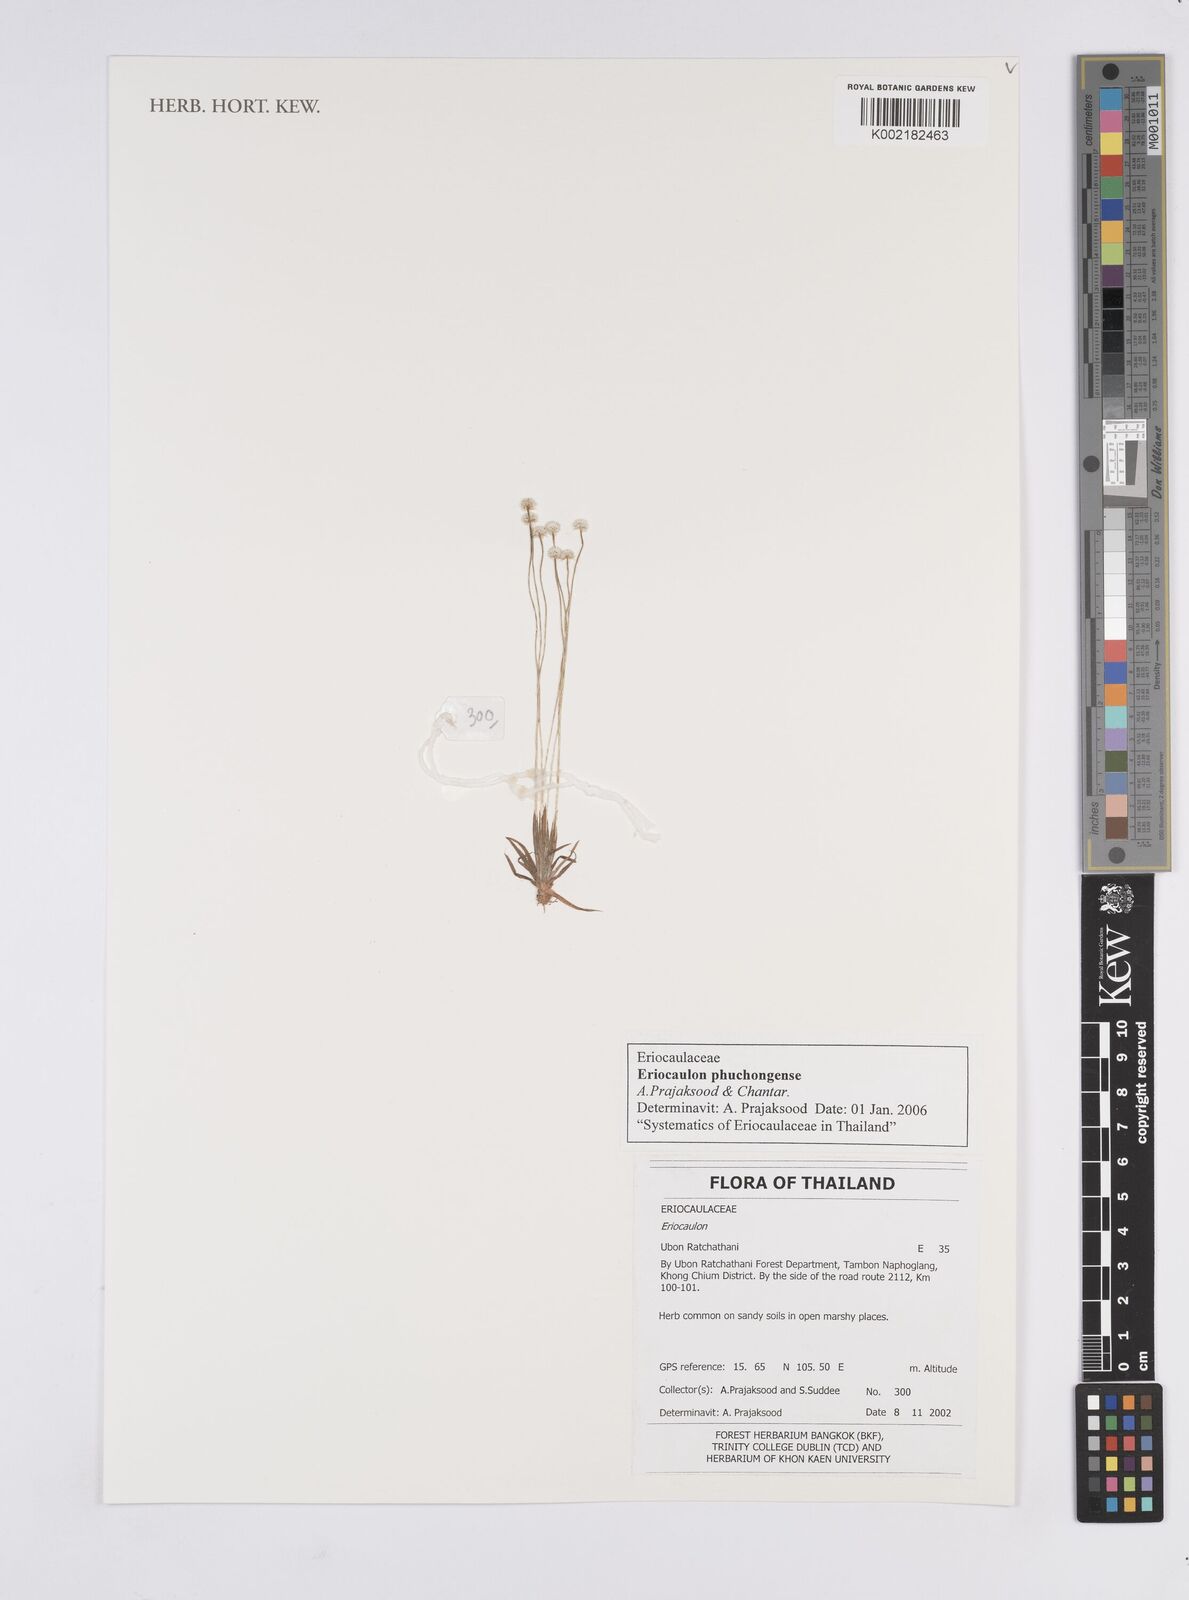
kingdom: Plantae
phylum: Tracheophyta
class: Liliopsida
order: Poales
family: Eriocaulaceae
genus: Eriocaulon
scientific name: Eriocaulon phuchongense
